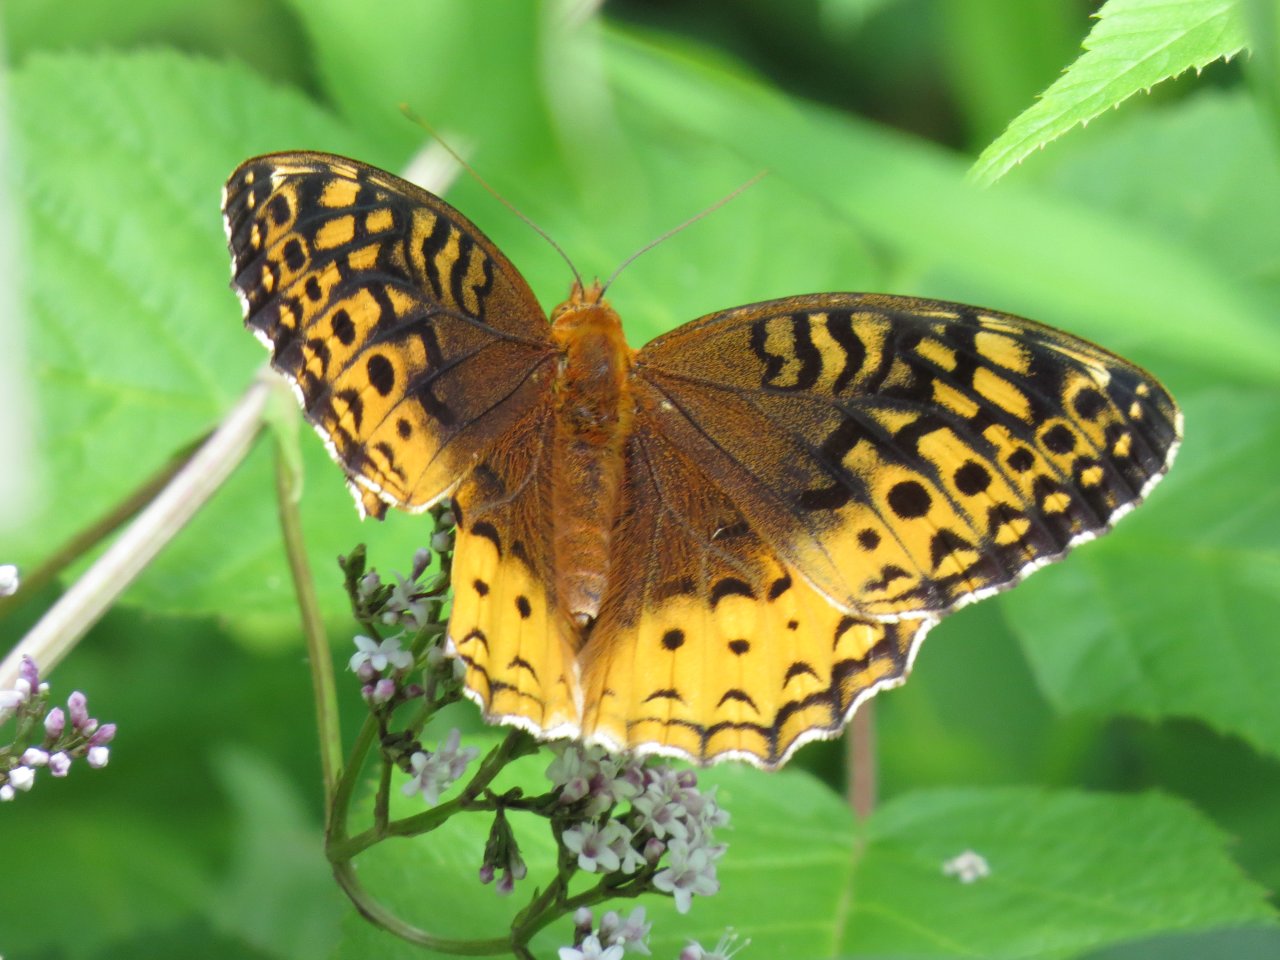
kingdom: Animalia
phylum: Arthropoda
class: Insecta
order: Lepidoptera
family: Nymphalidae
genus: Speyeria
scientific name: Speyeria cybele
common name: Great Spangled Fritillary
